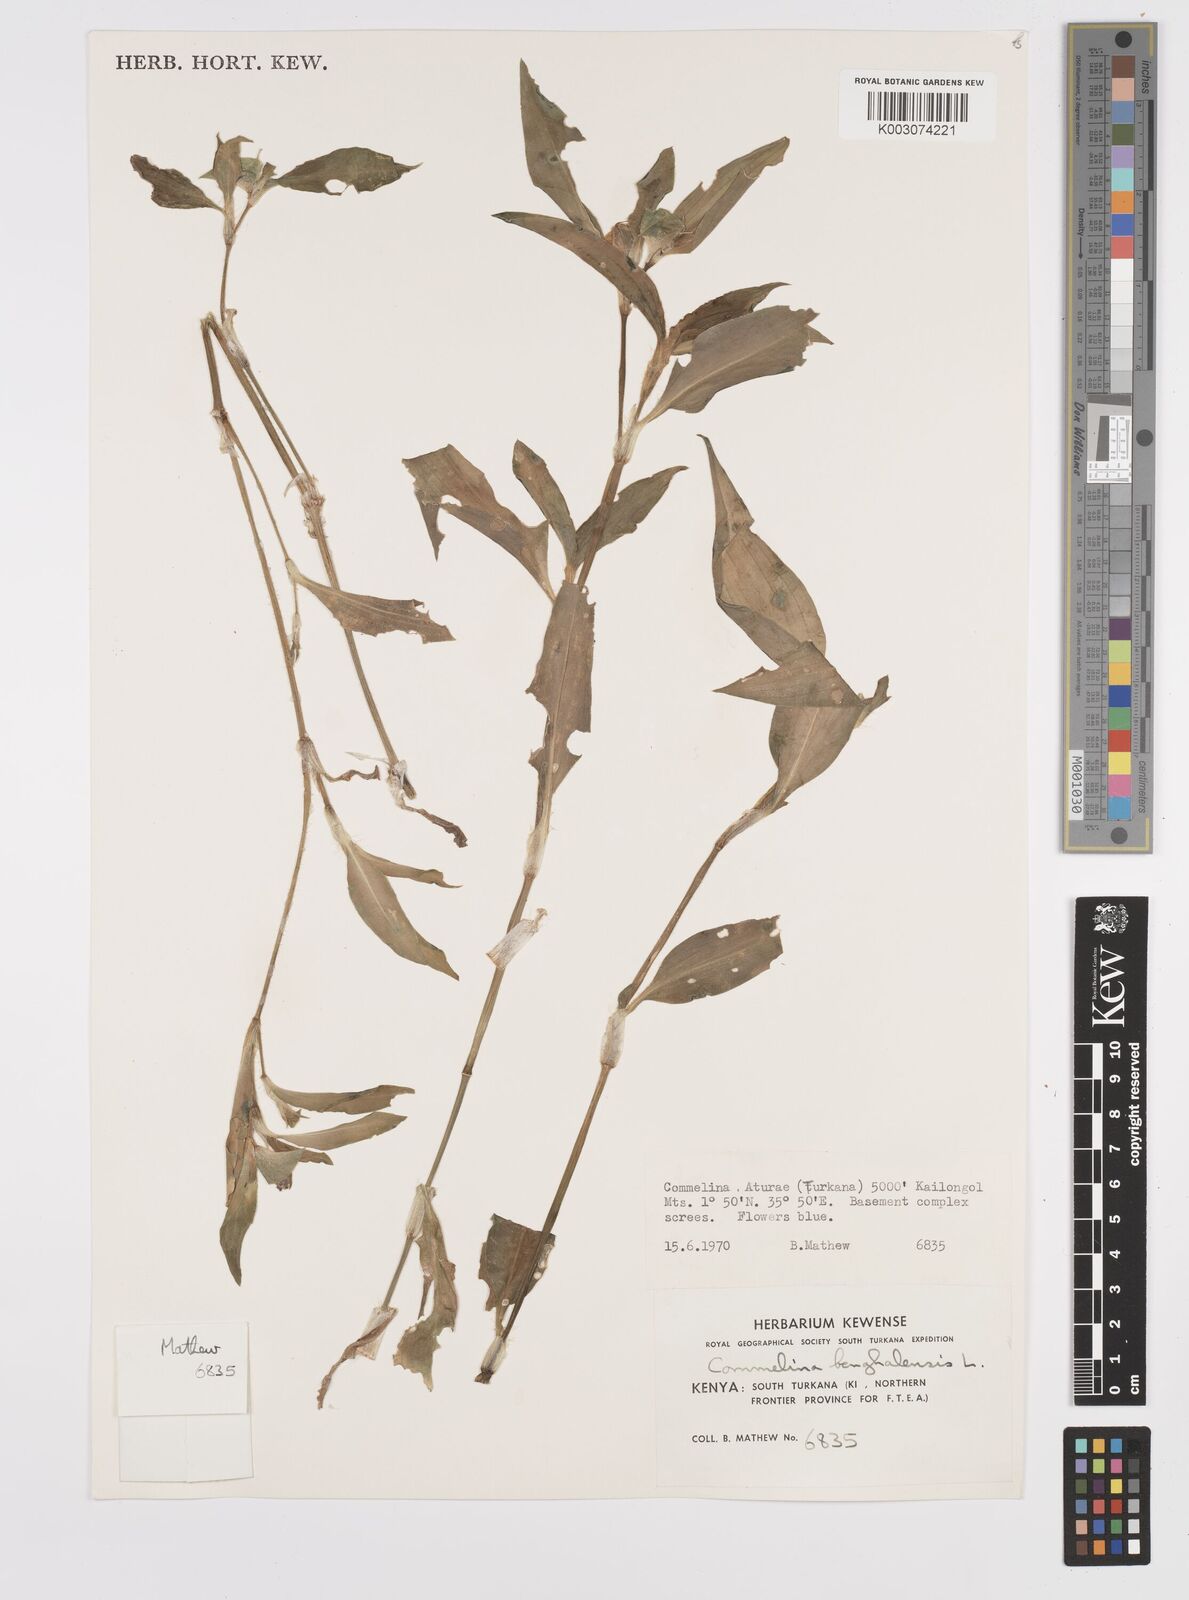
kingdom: Plantae
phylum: Tracheophyta
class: Liliopsida
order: Commelinales
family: Commelinaceae
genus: Commelina
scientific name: Commelina benghalensis
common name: Jio
